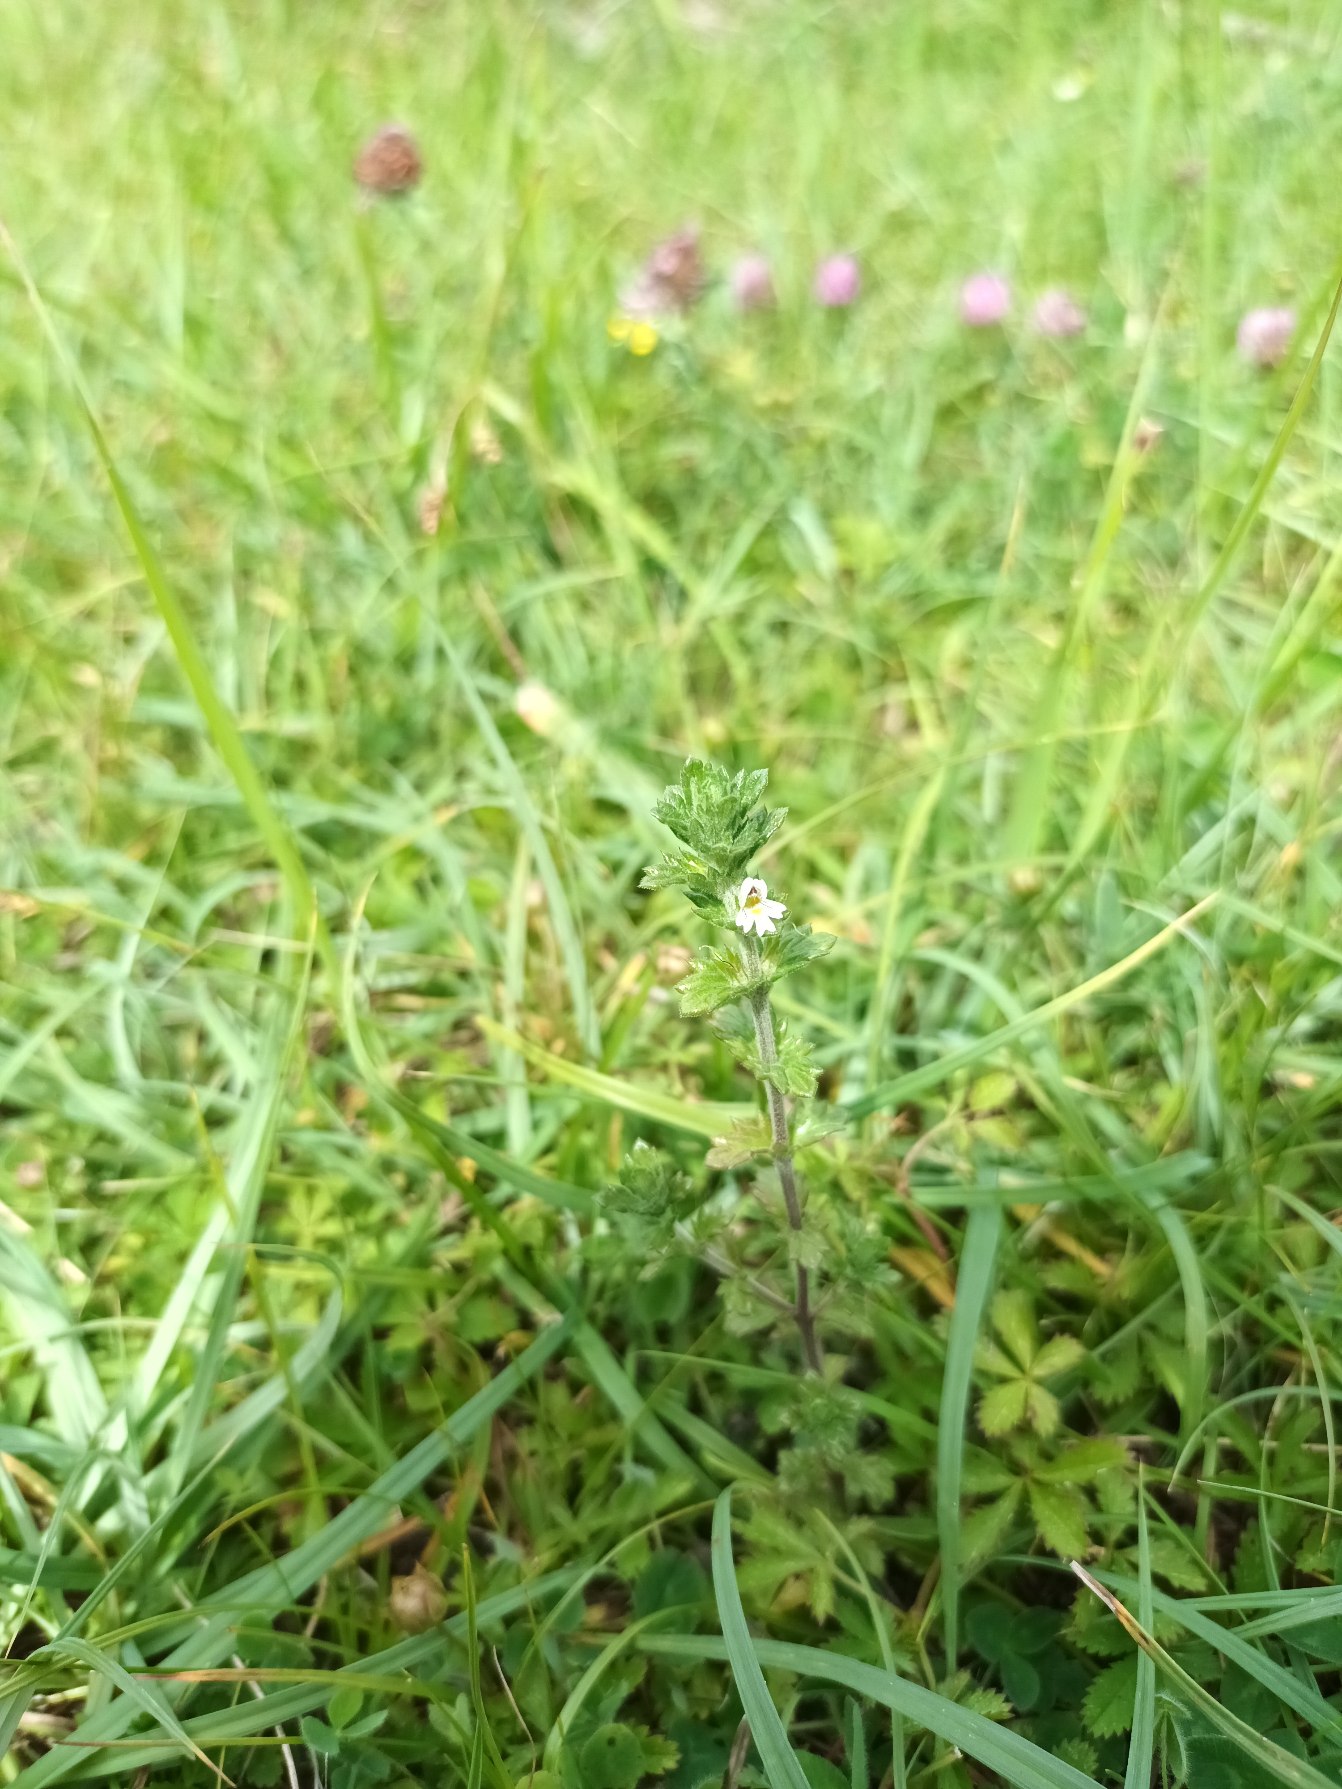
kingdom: Plantae
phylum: Tracheophyta
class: Magnoliopsida
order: Lamiales
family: Orobanchaceae
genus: Euphrasia
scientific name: Euphrasia nemorosa
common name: Kort øjentrøst
